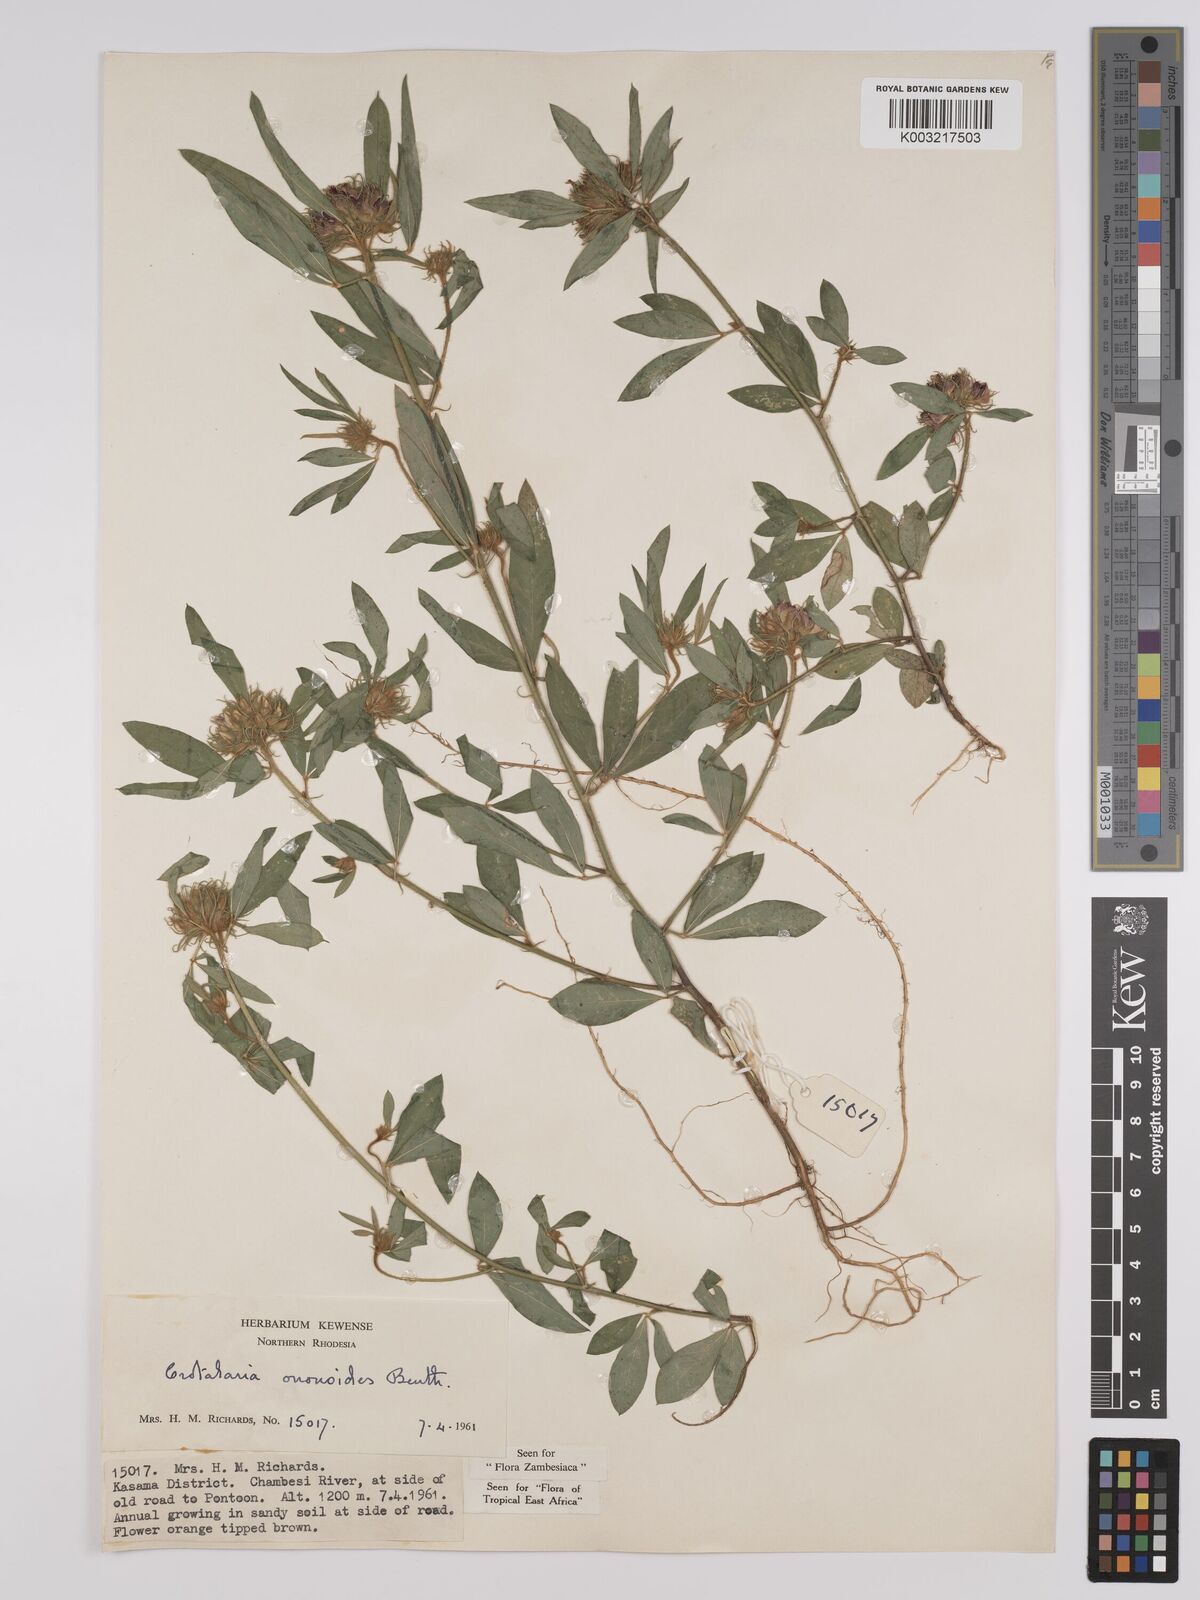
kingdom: Plantae
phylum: Tracheophyta
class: Magnoliopsida
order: Fabales
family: Fabaceae
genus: Crotalaria
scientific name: Crotalaria ononoides
